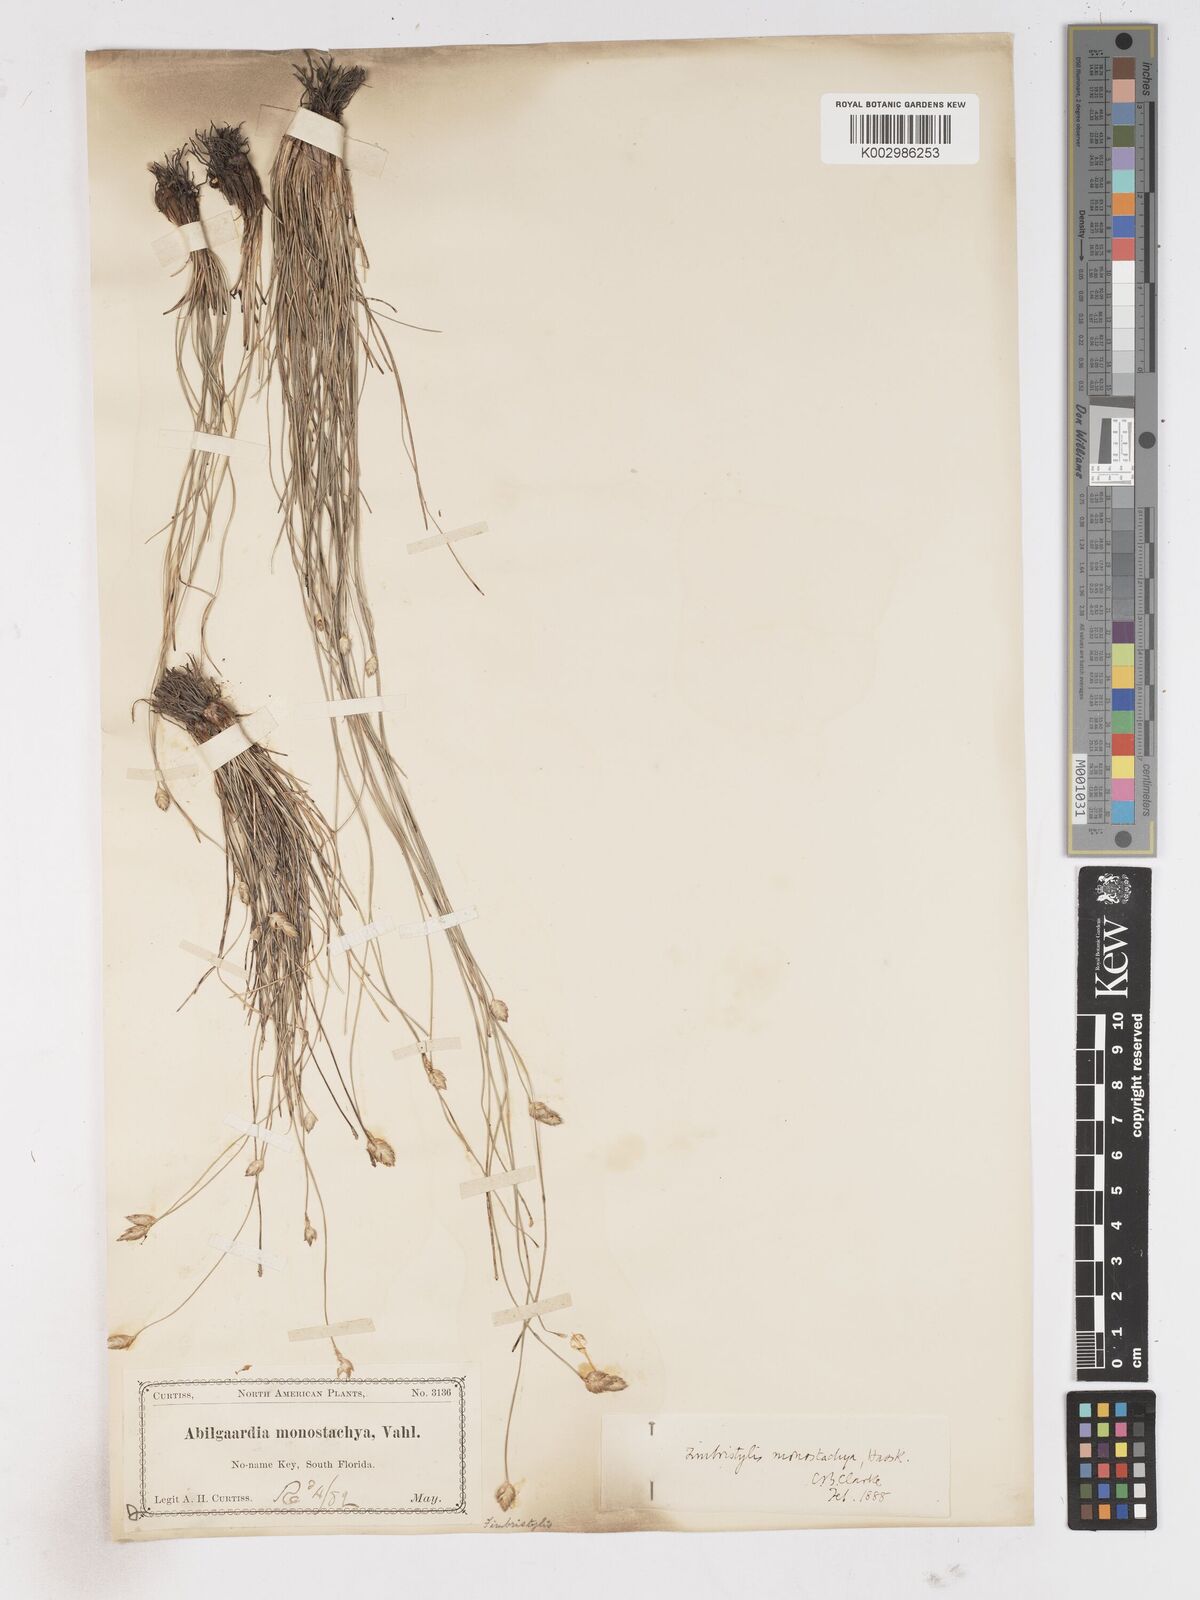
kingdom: Plantae
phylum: Tracheophyta
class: Liliopsida
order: Poales
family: Cyperaceae
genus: Abildgaardia
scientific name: Abildgaardia ovata
